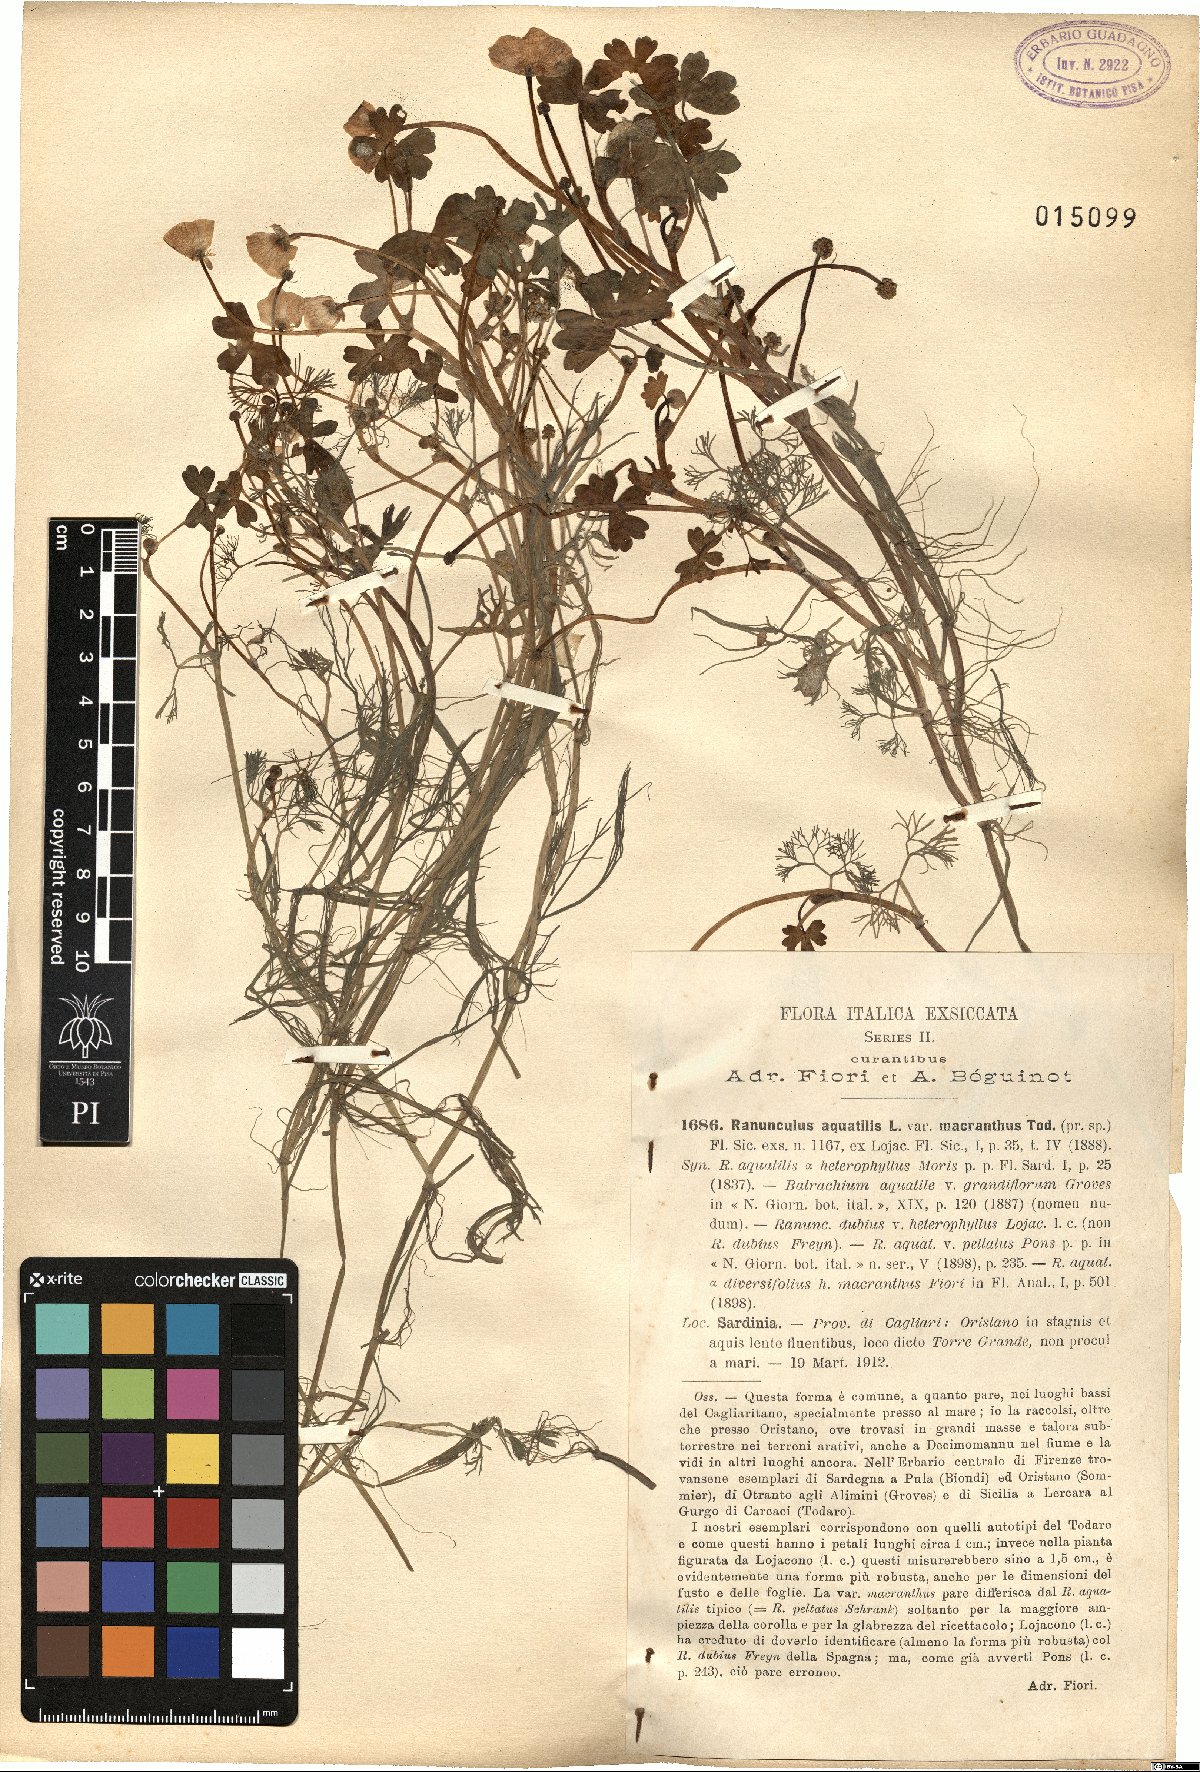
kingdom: Plantae
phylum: Tracheophyta
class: Magnoliopsida
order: Ranunculales
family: Ranunculaceae
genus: Ranunculus
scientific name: Ranunculus aquatilis
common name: Common water-crowfoot
